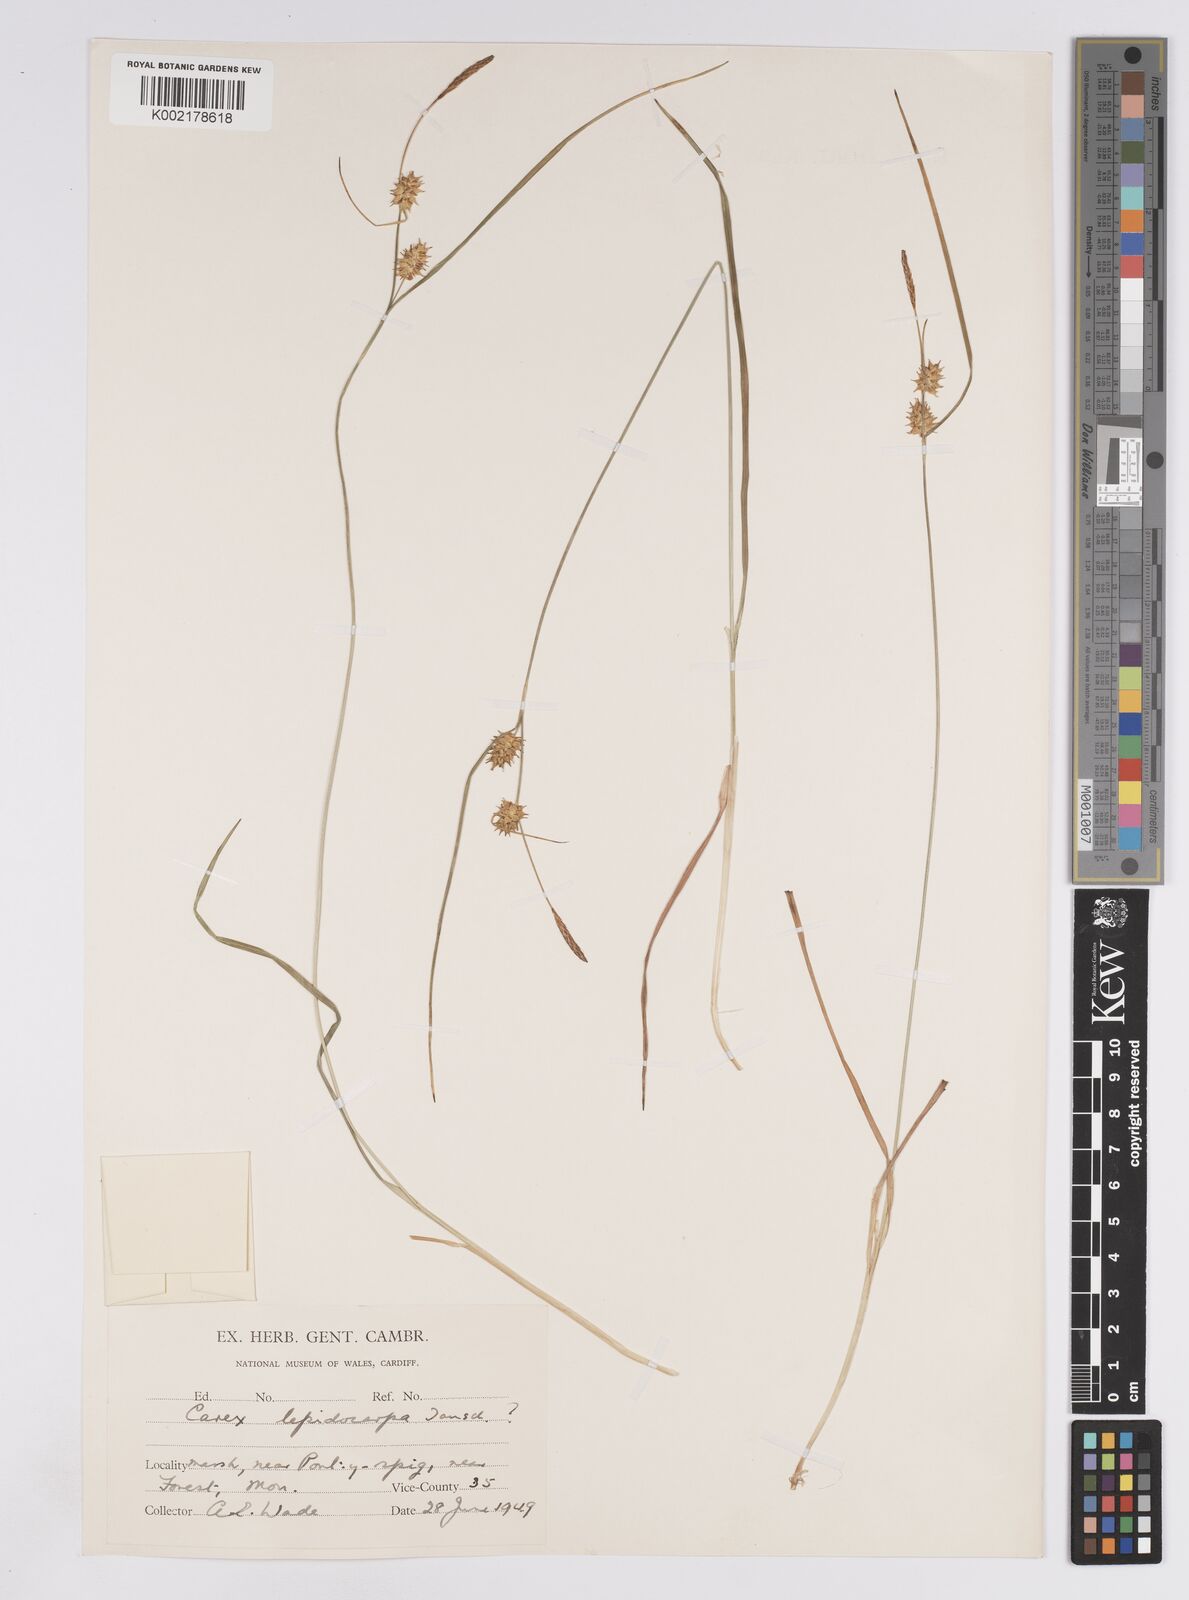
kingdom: Plantae
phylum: Tracheophyta
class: Liliopsida
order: Poales
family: Cyperaceae
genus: Carex
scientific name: Carex lepidocarpa
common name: Long-stalked yellow-sedge
